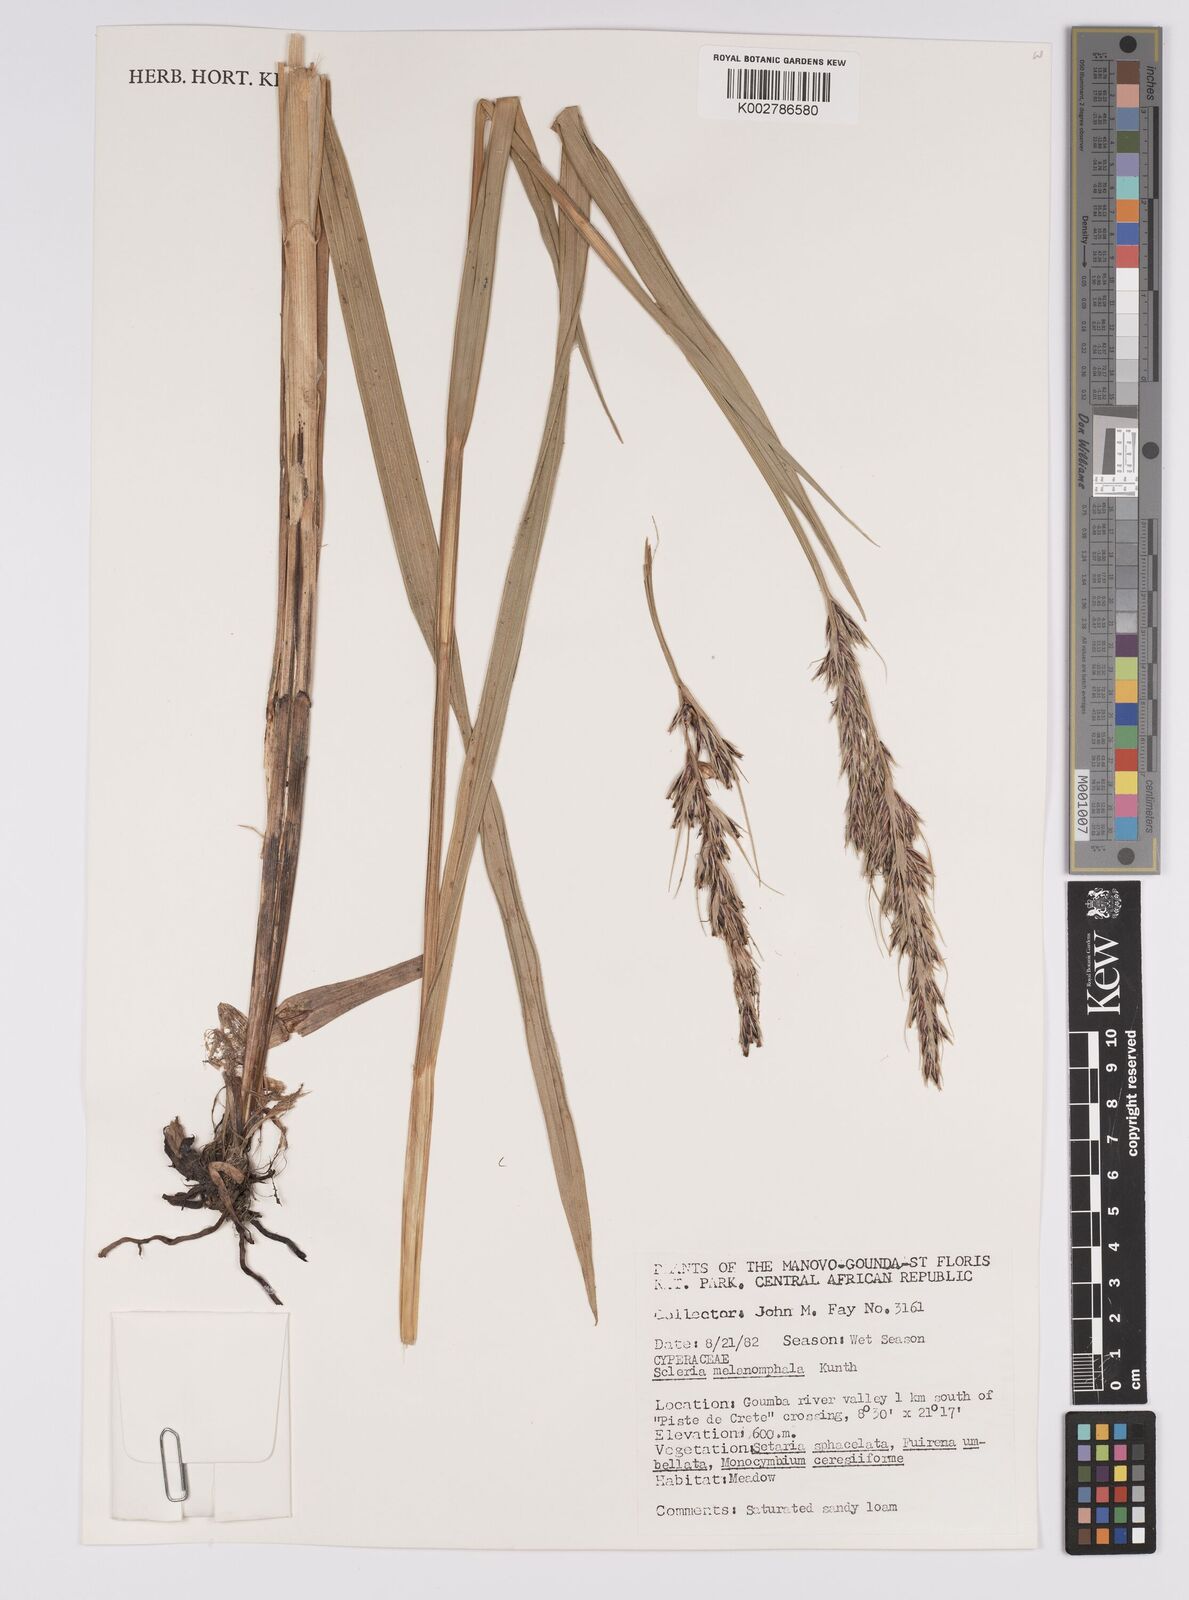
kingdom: Plantae
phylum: Tracheophyta
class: Liliopsida
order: Poales
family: Cyperaceae
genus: Scleria
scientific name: Scleria melanomphala
